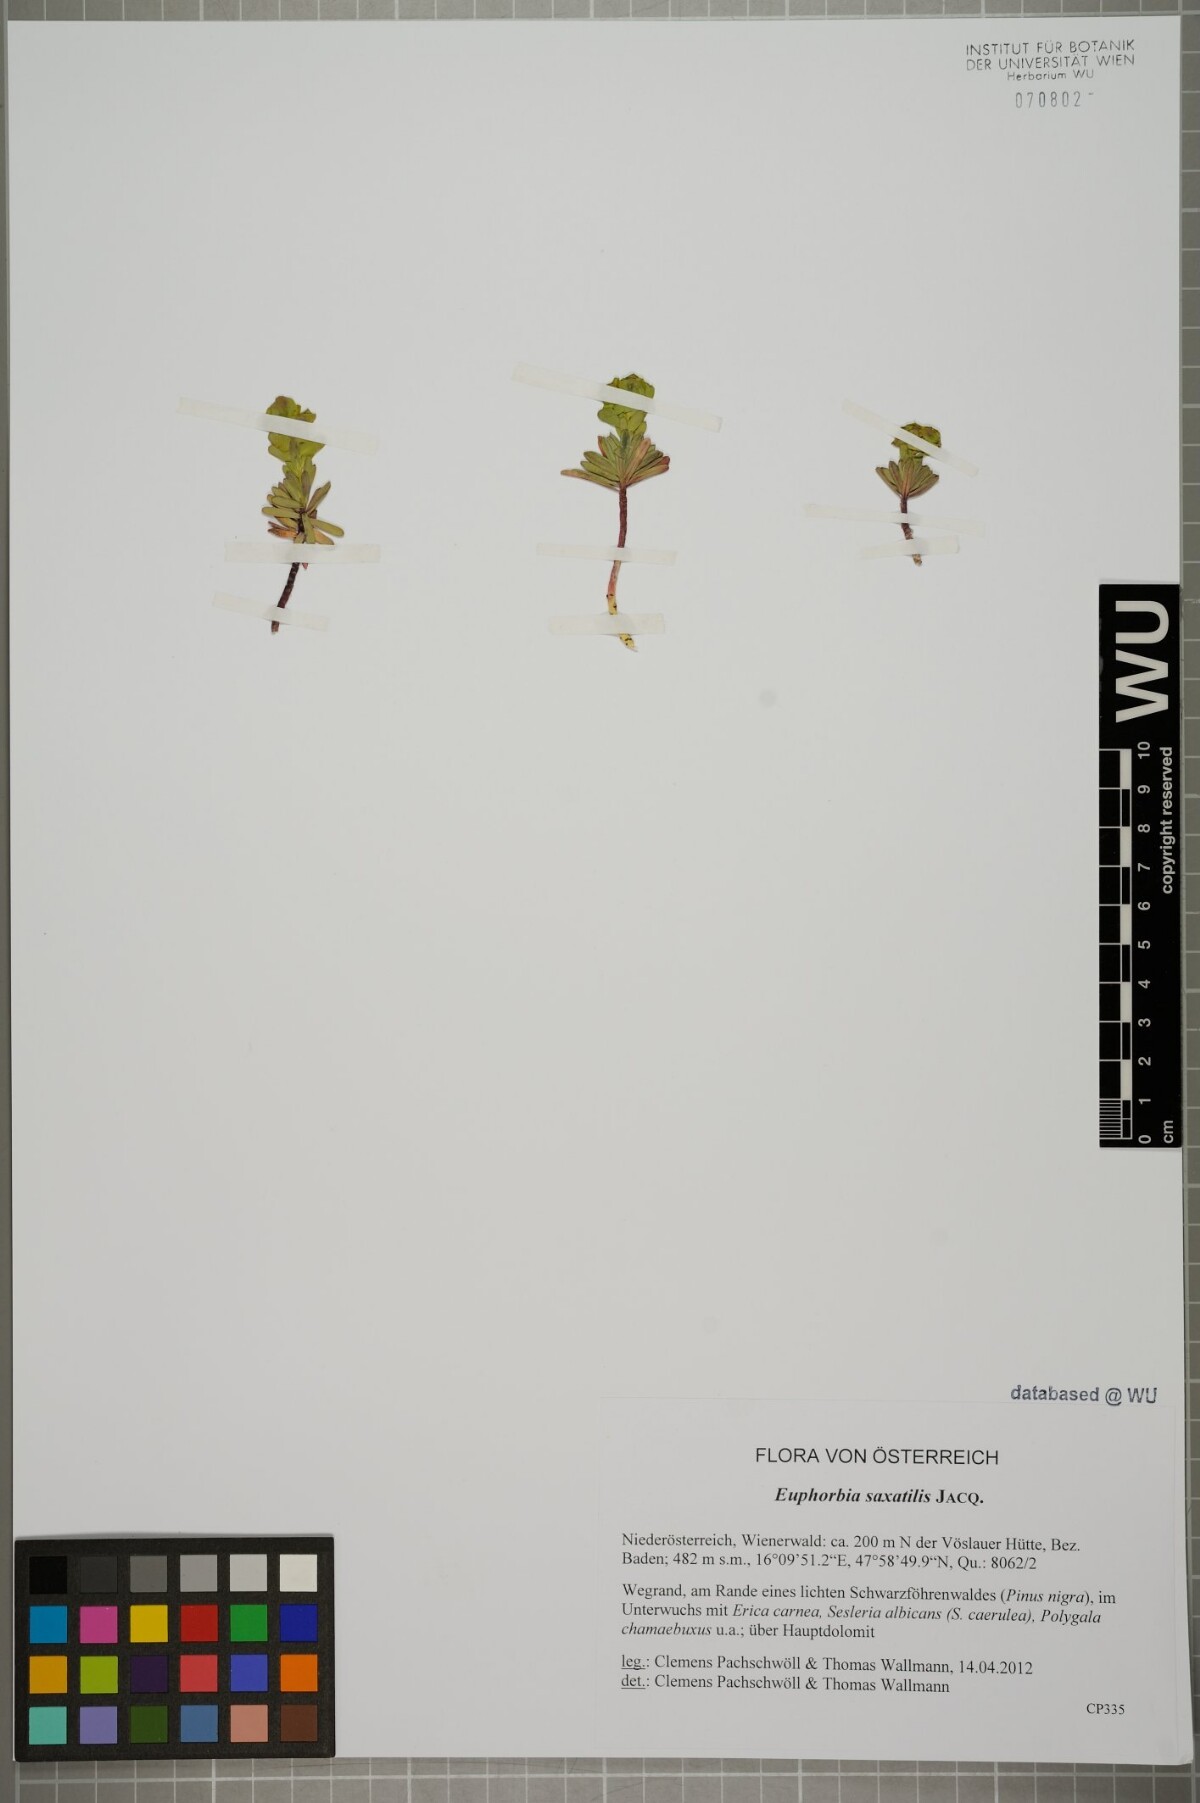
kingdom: Plantae
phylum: Tracheophyta
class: Magnoliopsida
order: Malpighiales
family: Euphorbiaceae
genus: Euphorbia
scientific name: Euphorbia saxatilis
